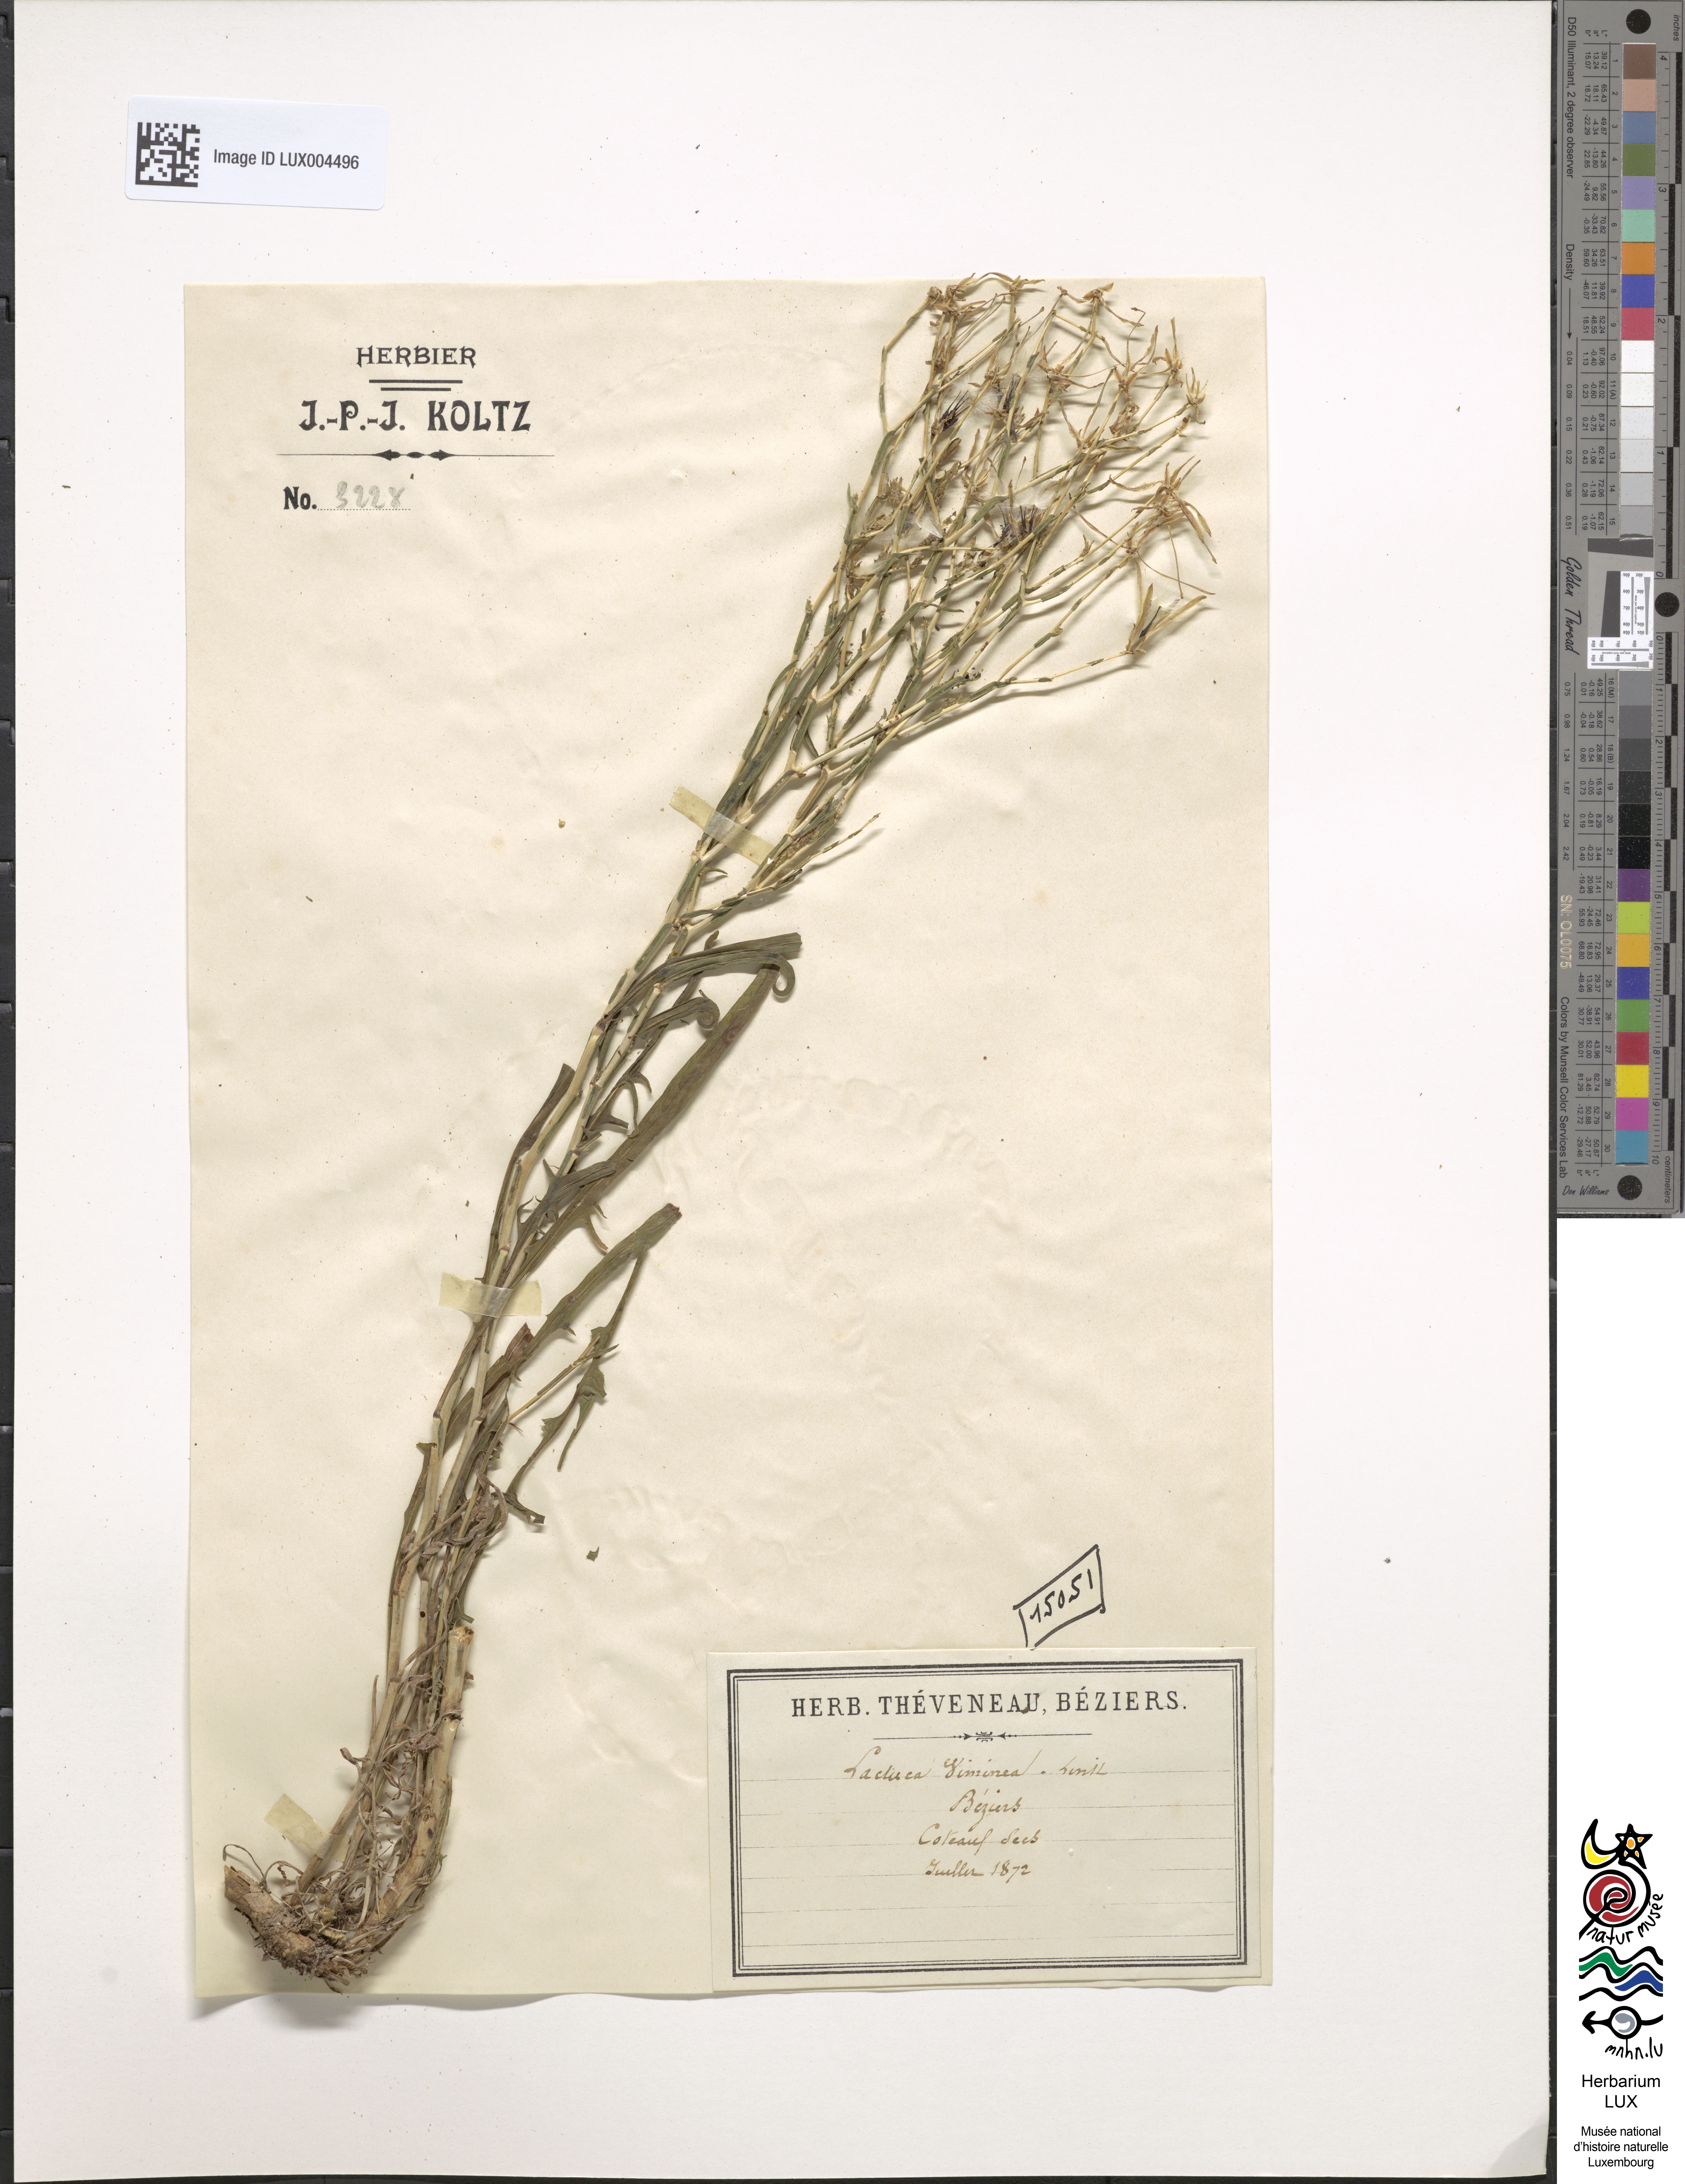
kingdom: Plantae
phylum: Tracheophyta
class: Magnoliopsida
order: Asterales
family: Asteraceae
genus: Lactuca
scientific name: Lactuca viminea
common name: Pliant lettuce
